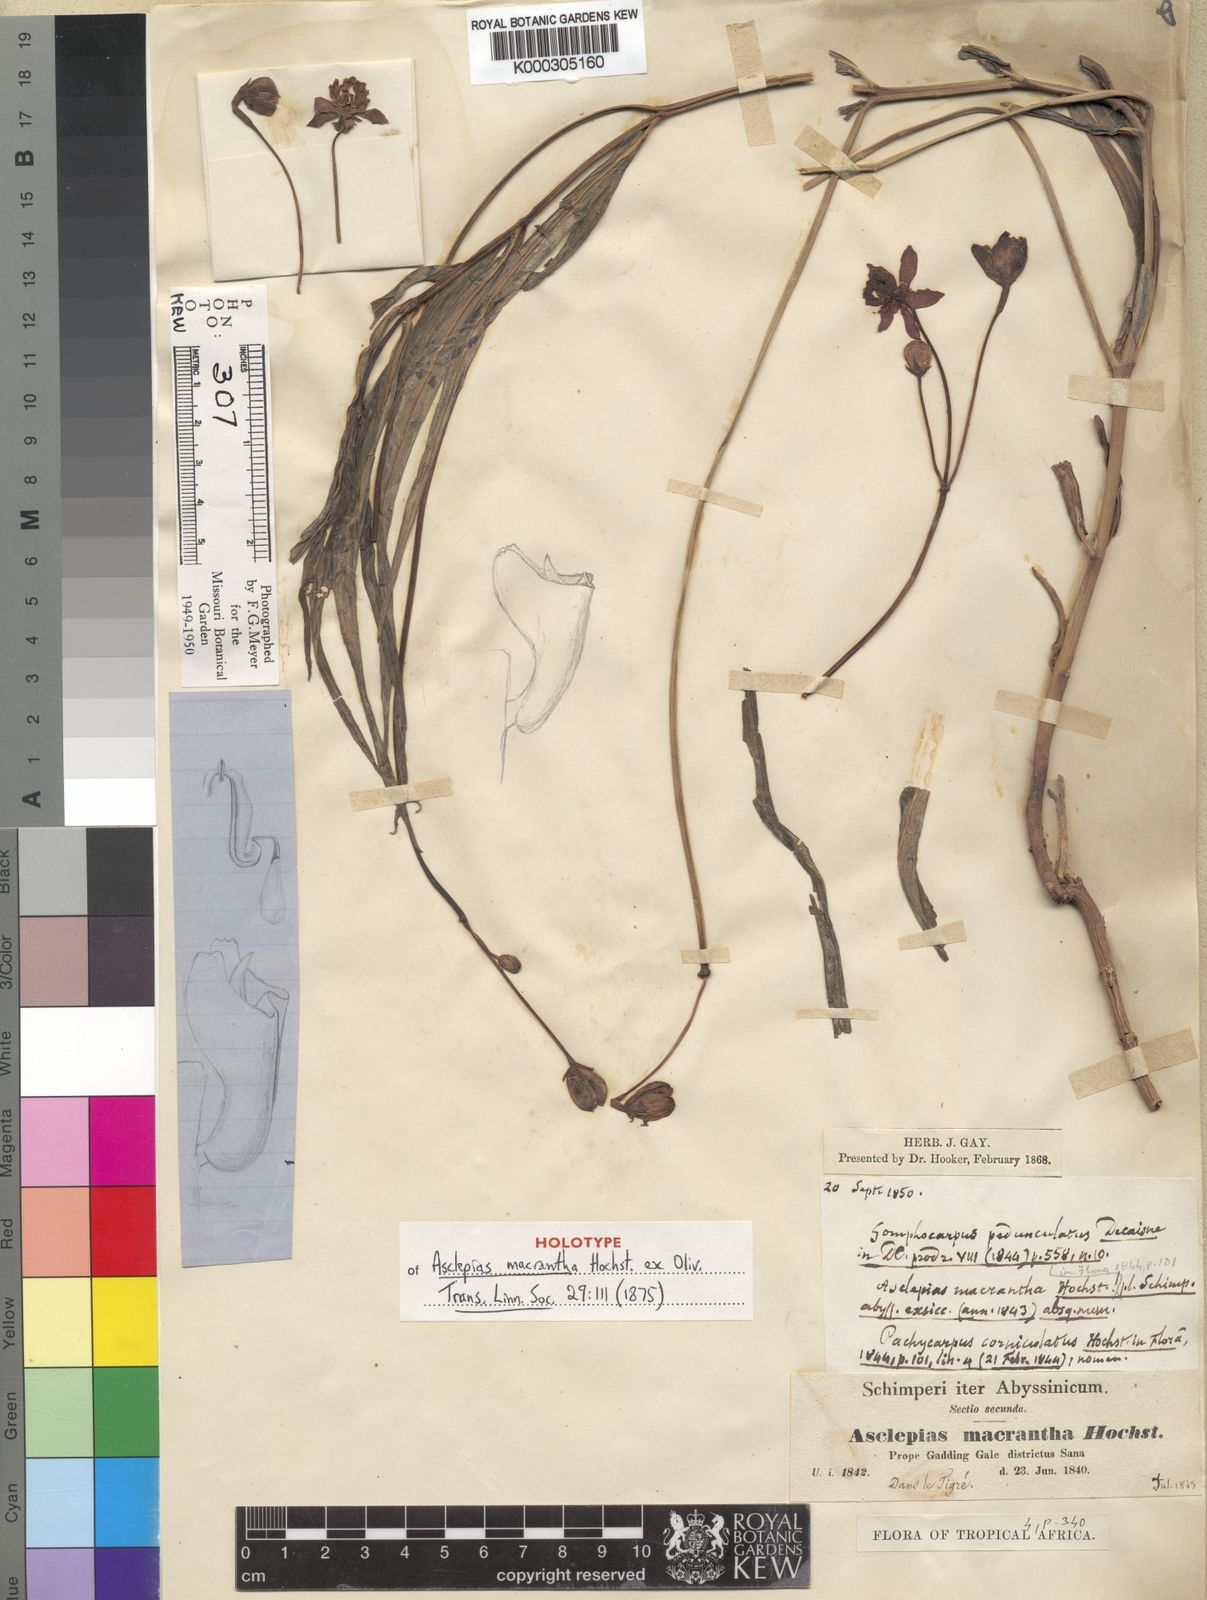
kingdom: Plantae
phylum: Tracheophyta
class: Magnoliopsida
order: Gentianales
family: Apocynaceae
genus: Stathmostelma
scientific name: Stathmostelma pedunculatum
